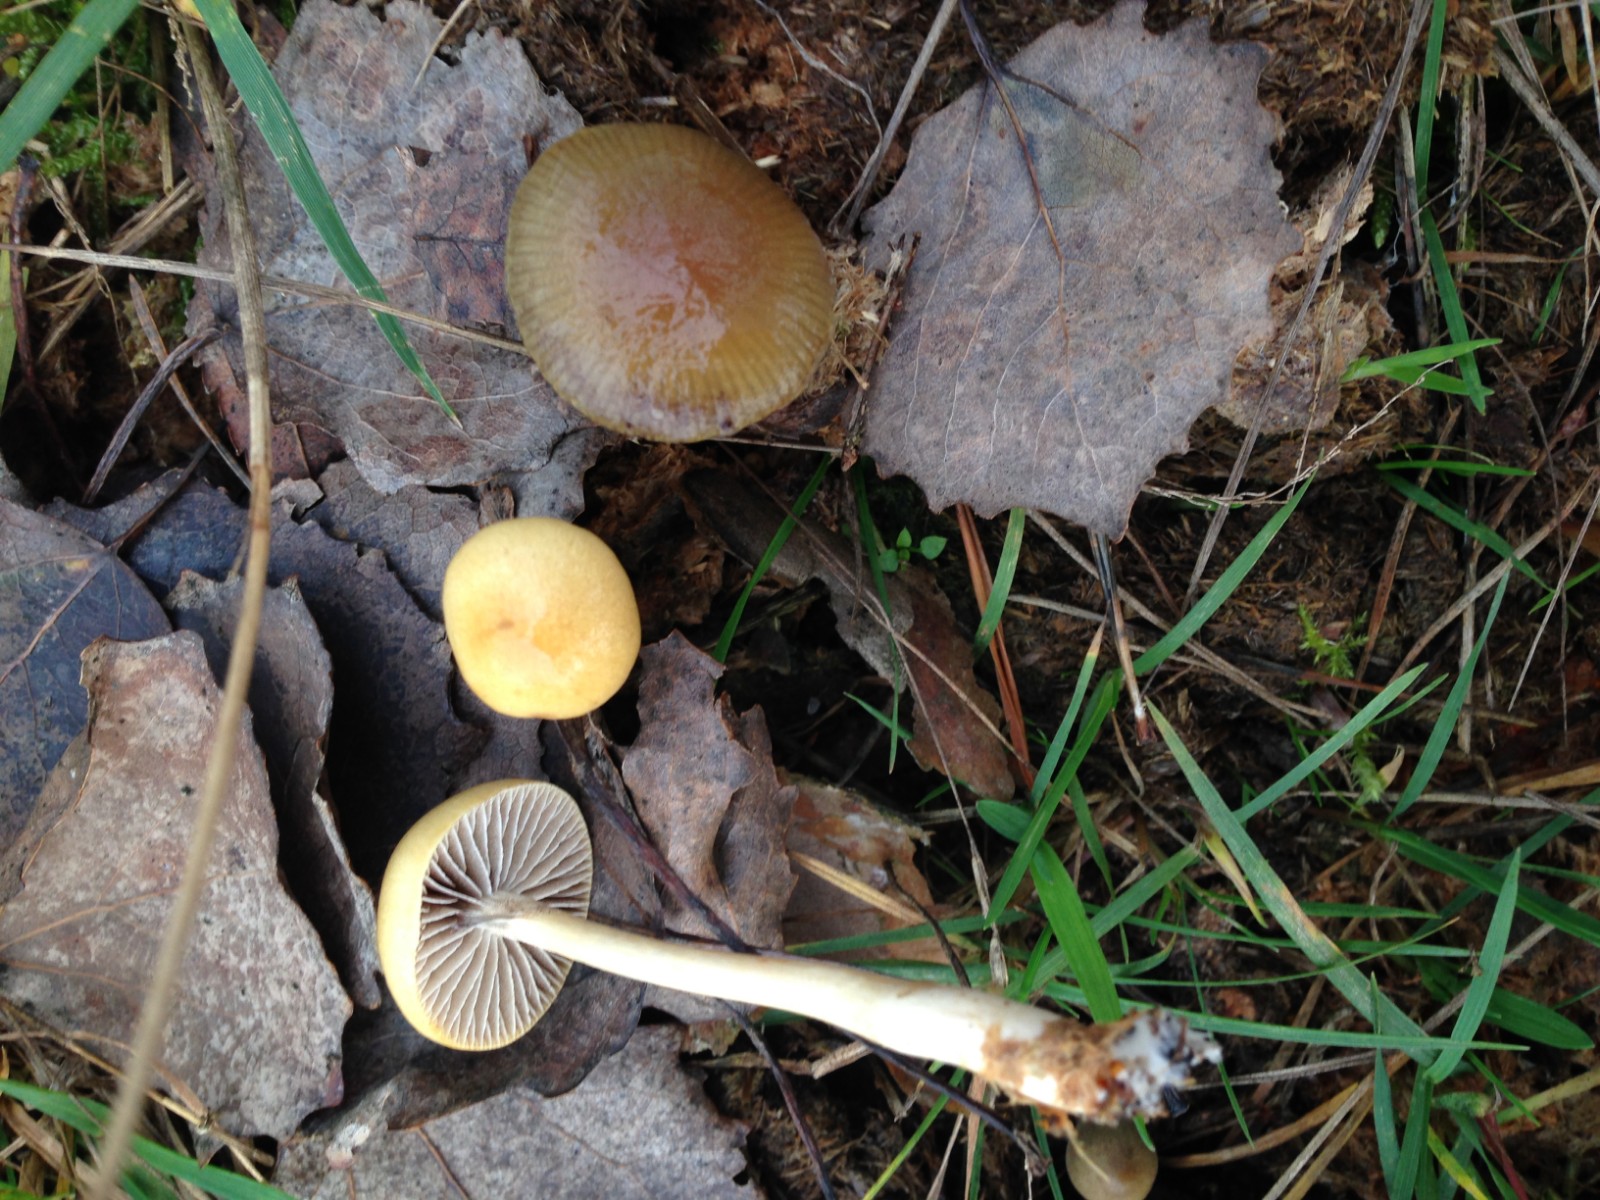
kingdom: Fungi
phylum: Basidiomycota
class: Agaricomycetes
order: Agaricales
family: Strophariaceae
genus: Protostropharia
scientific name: Protostropharia semiglobata
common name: halvkugleformet bredblad
